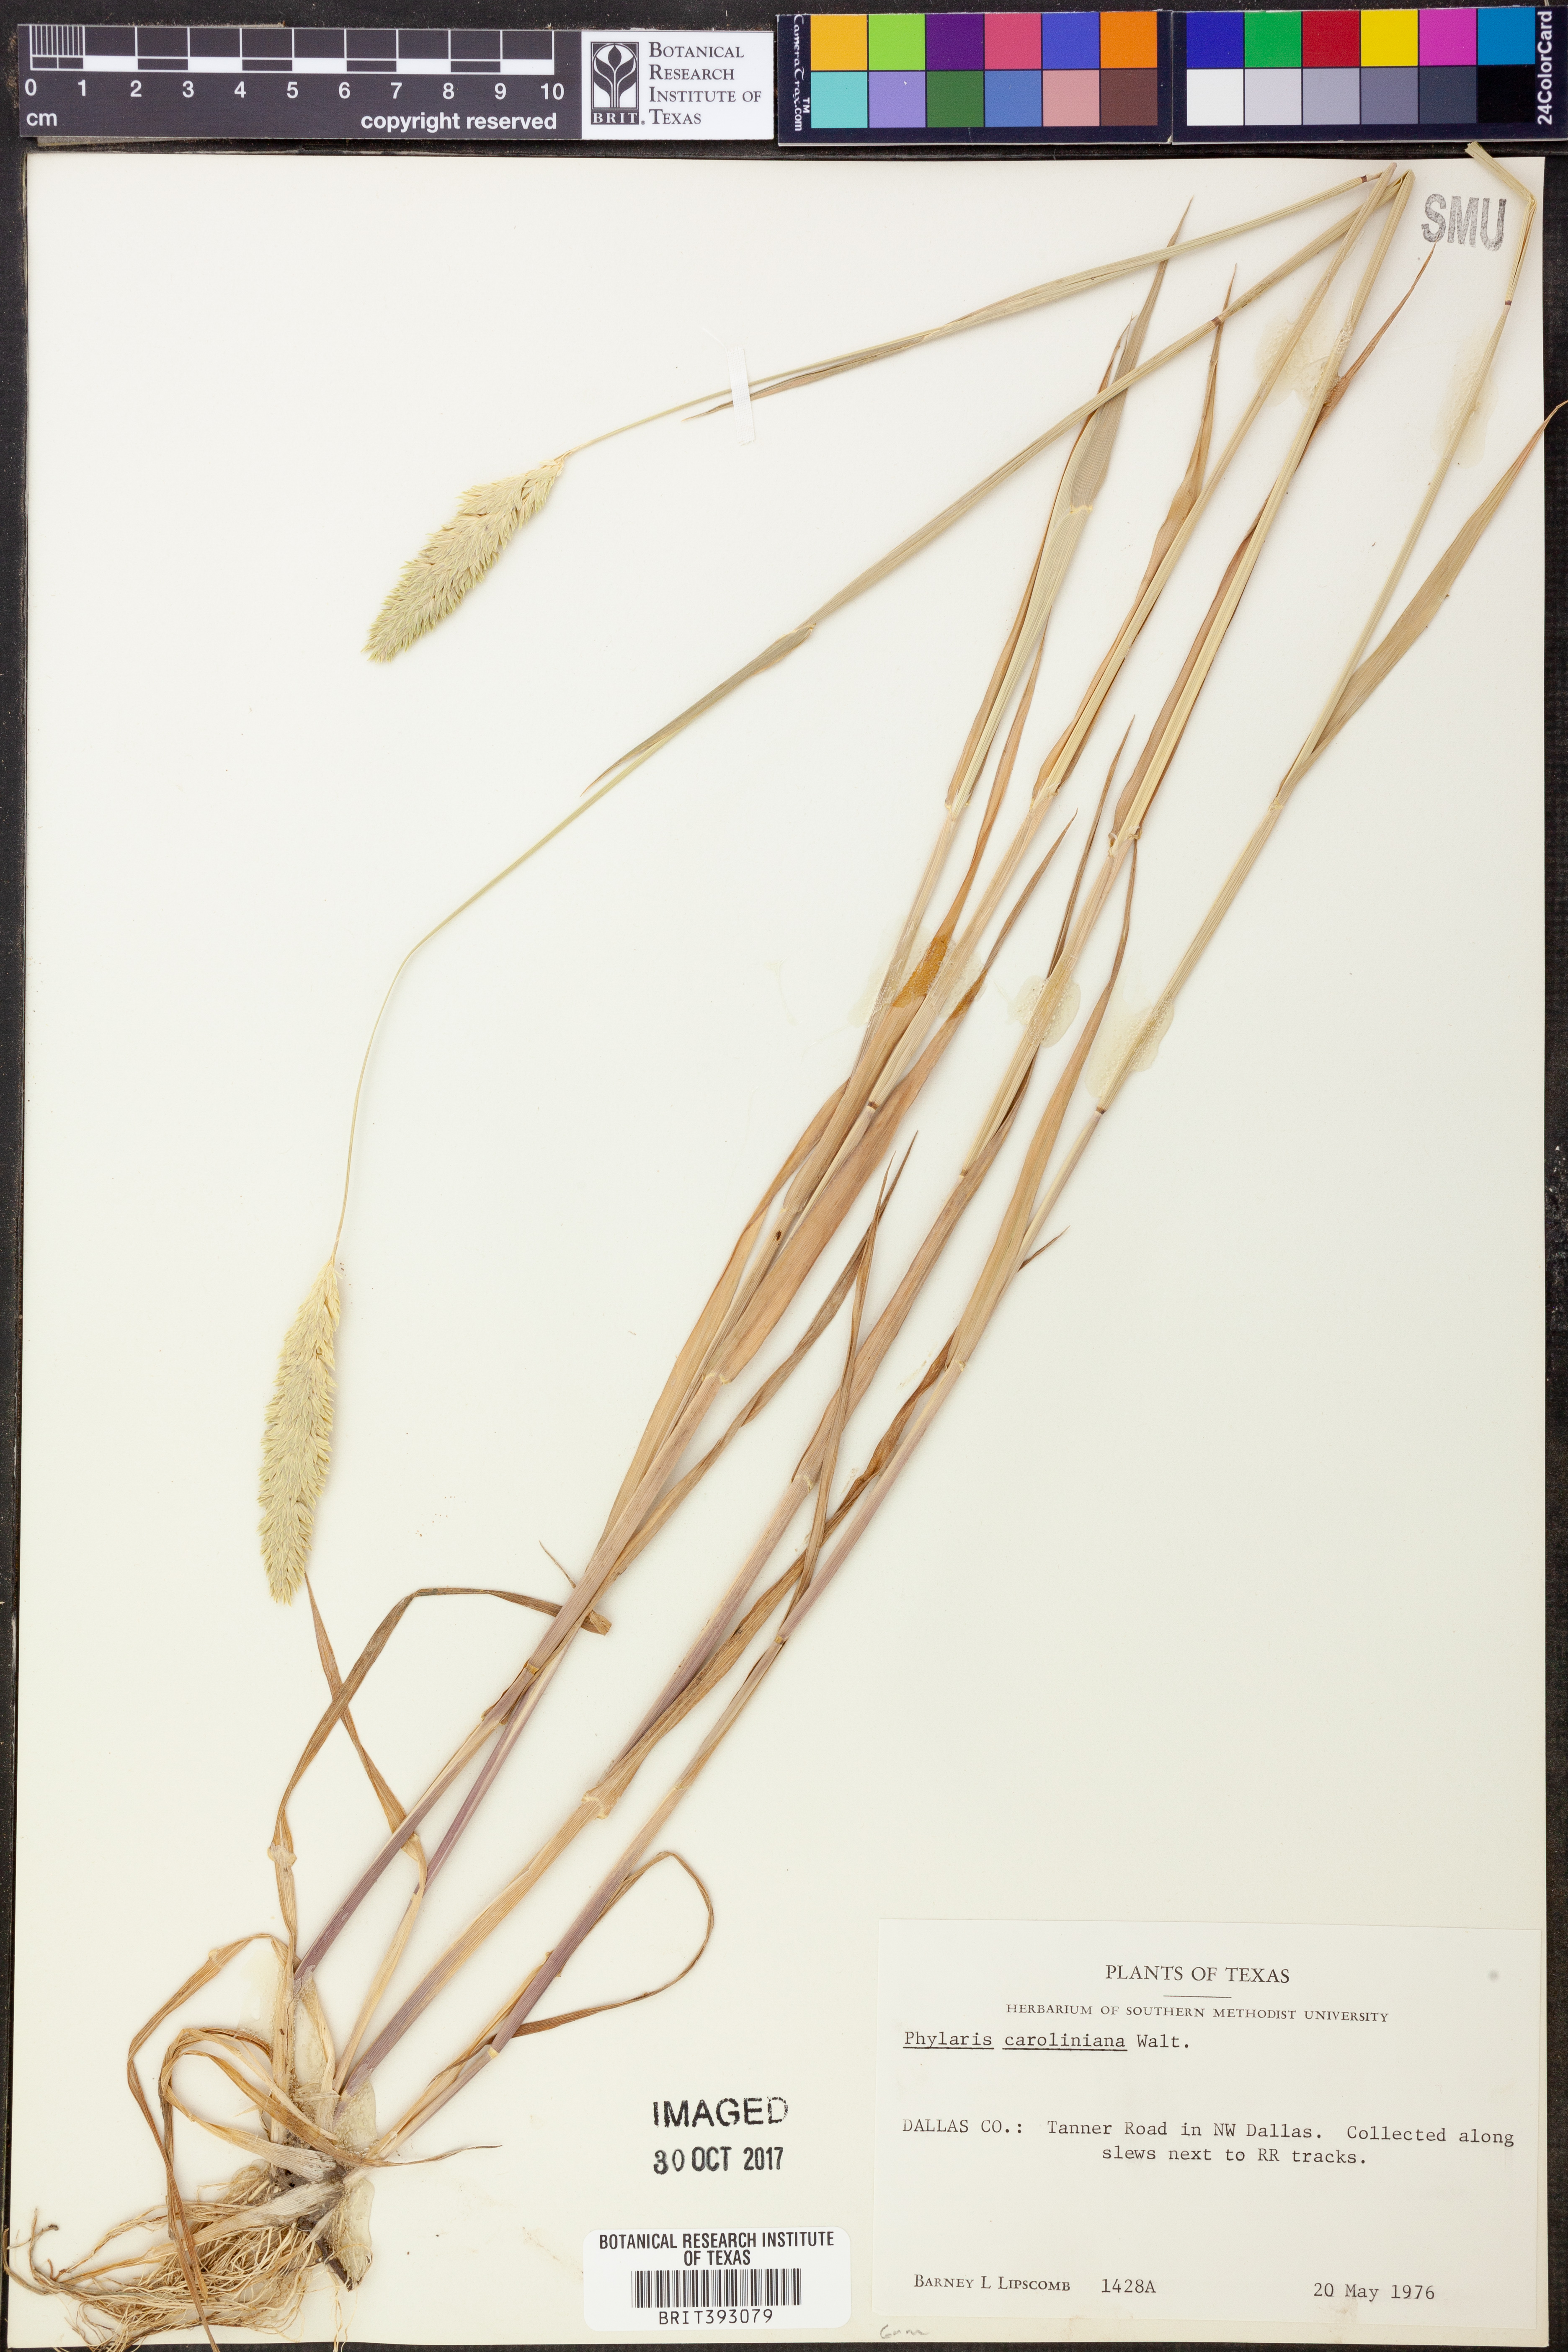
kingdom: Plantae
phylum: Tracheophyta
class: Liliopsida
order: Poales
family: Poaceae
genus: Phalaris
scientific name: Phalaris caroliniana
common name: May grass
